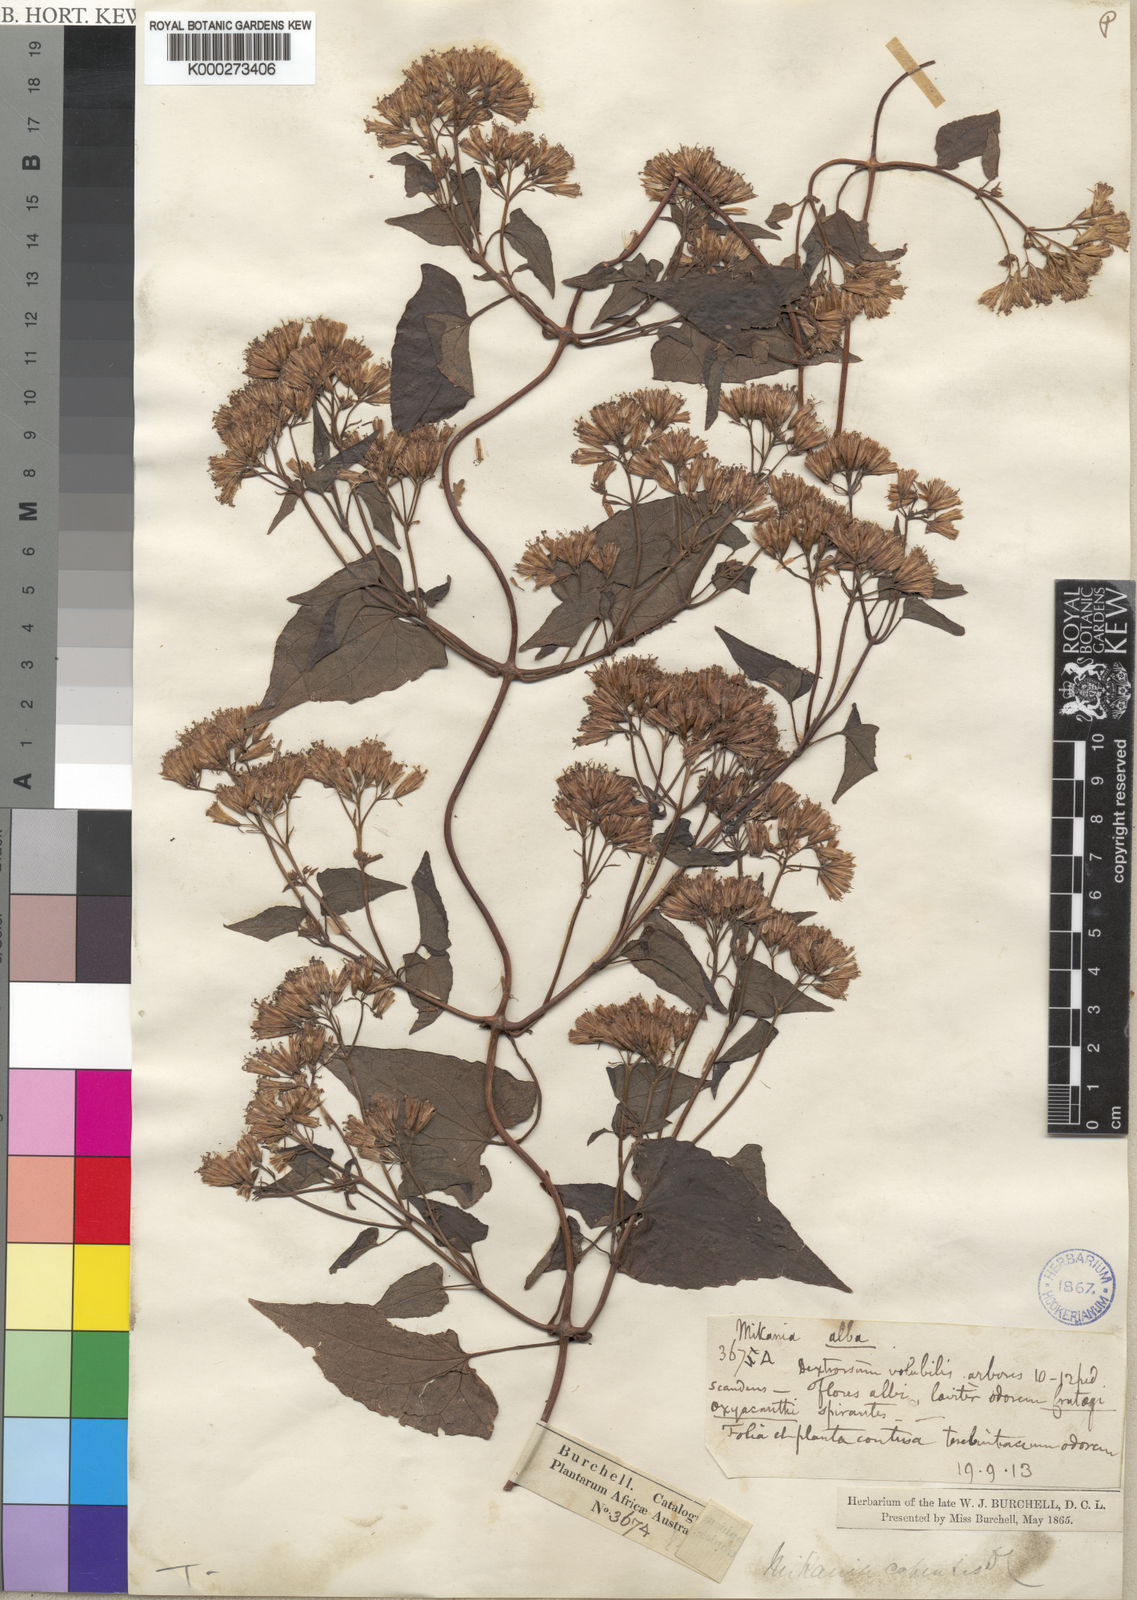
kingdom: Plantae
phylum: Tracheophyta
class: Magnoliopsida
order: Asterales
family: Asteraceae
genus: Mikania
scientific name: Mikania chenopodifolia
